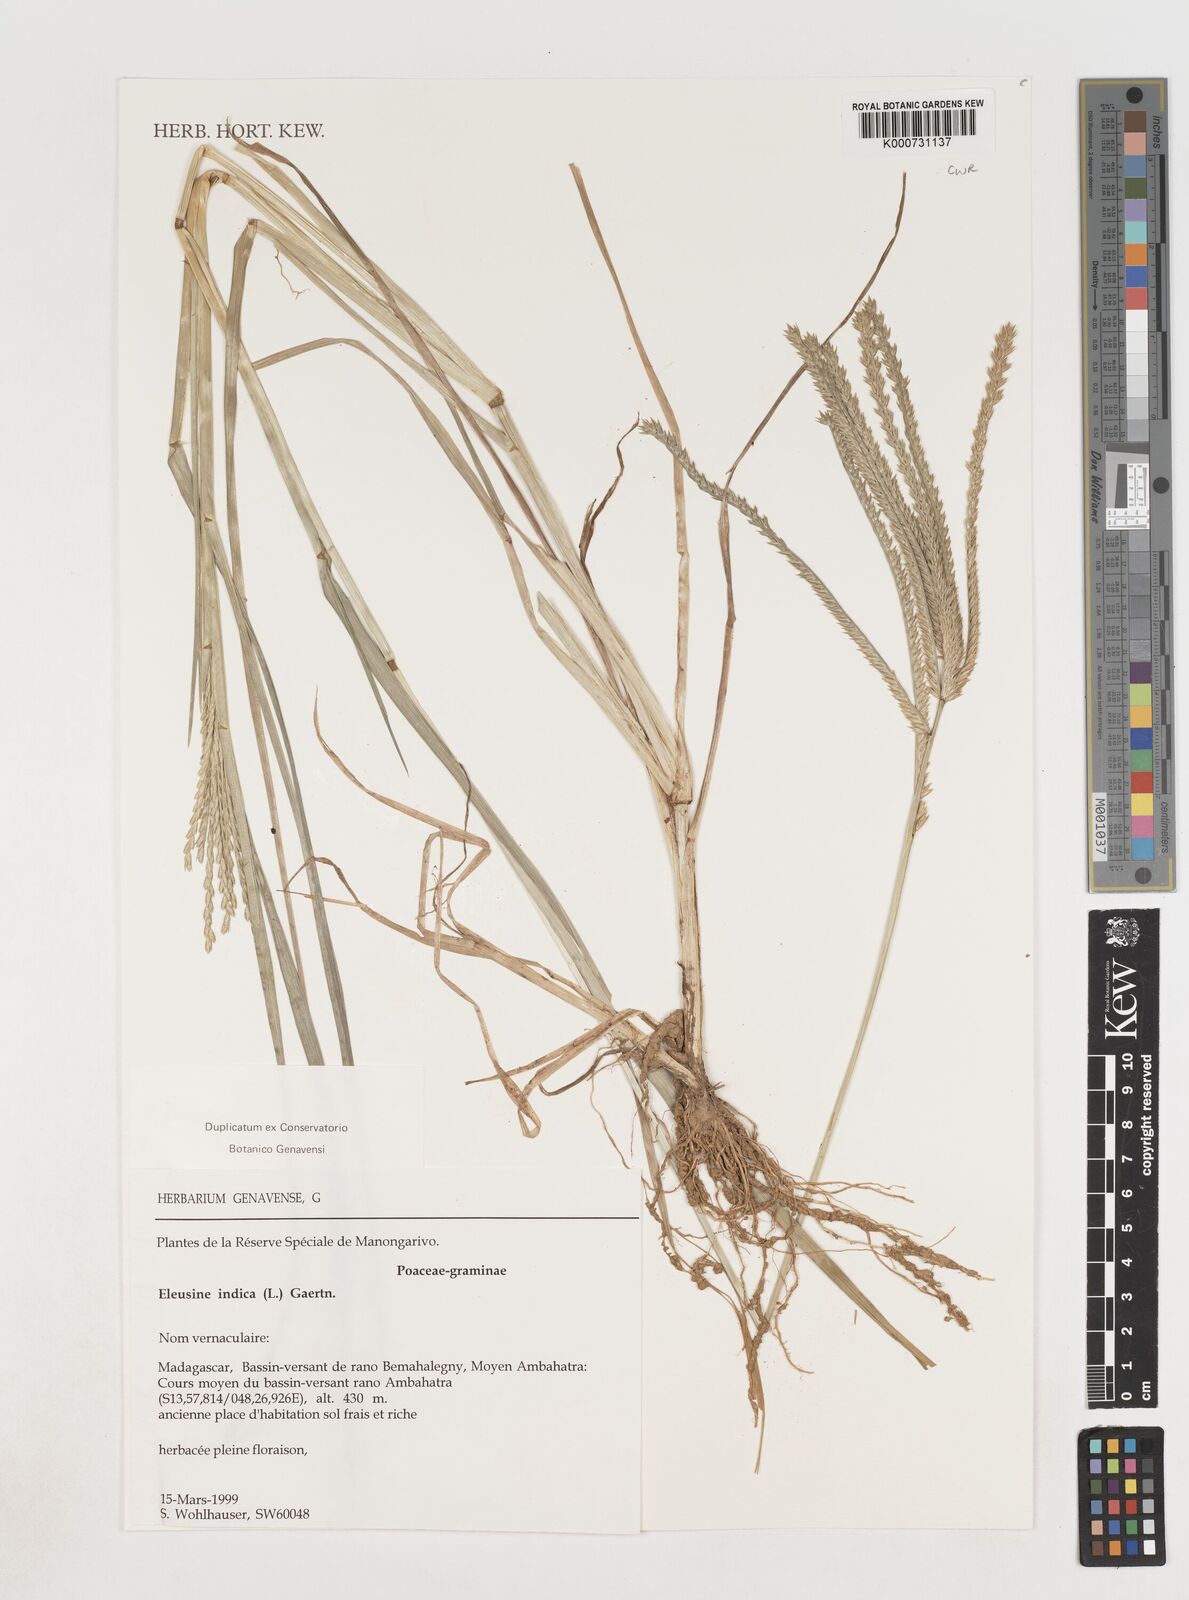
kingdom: Plantae
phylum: Tracheophyta
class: Liliopsida
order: Poales
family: Poaceae
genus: Eleusine
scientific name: Eleusine indica
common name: Yard-grass
